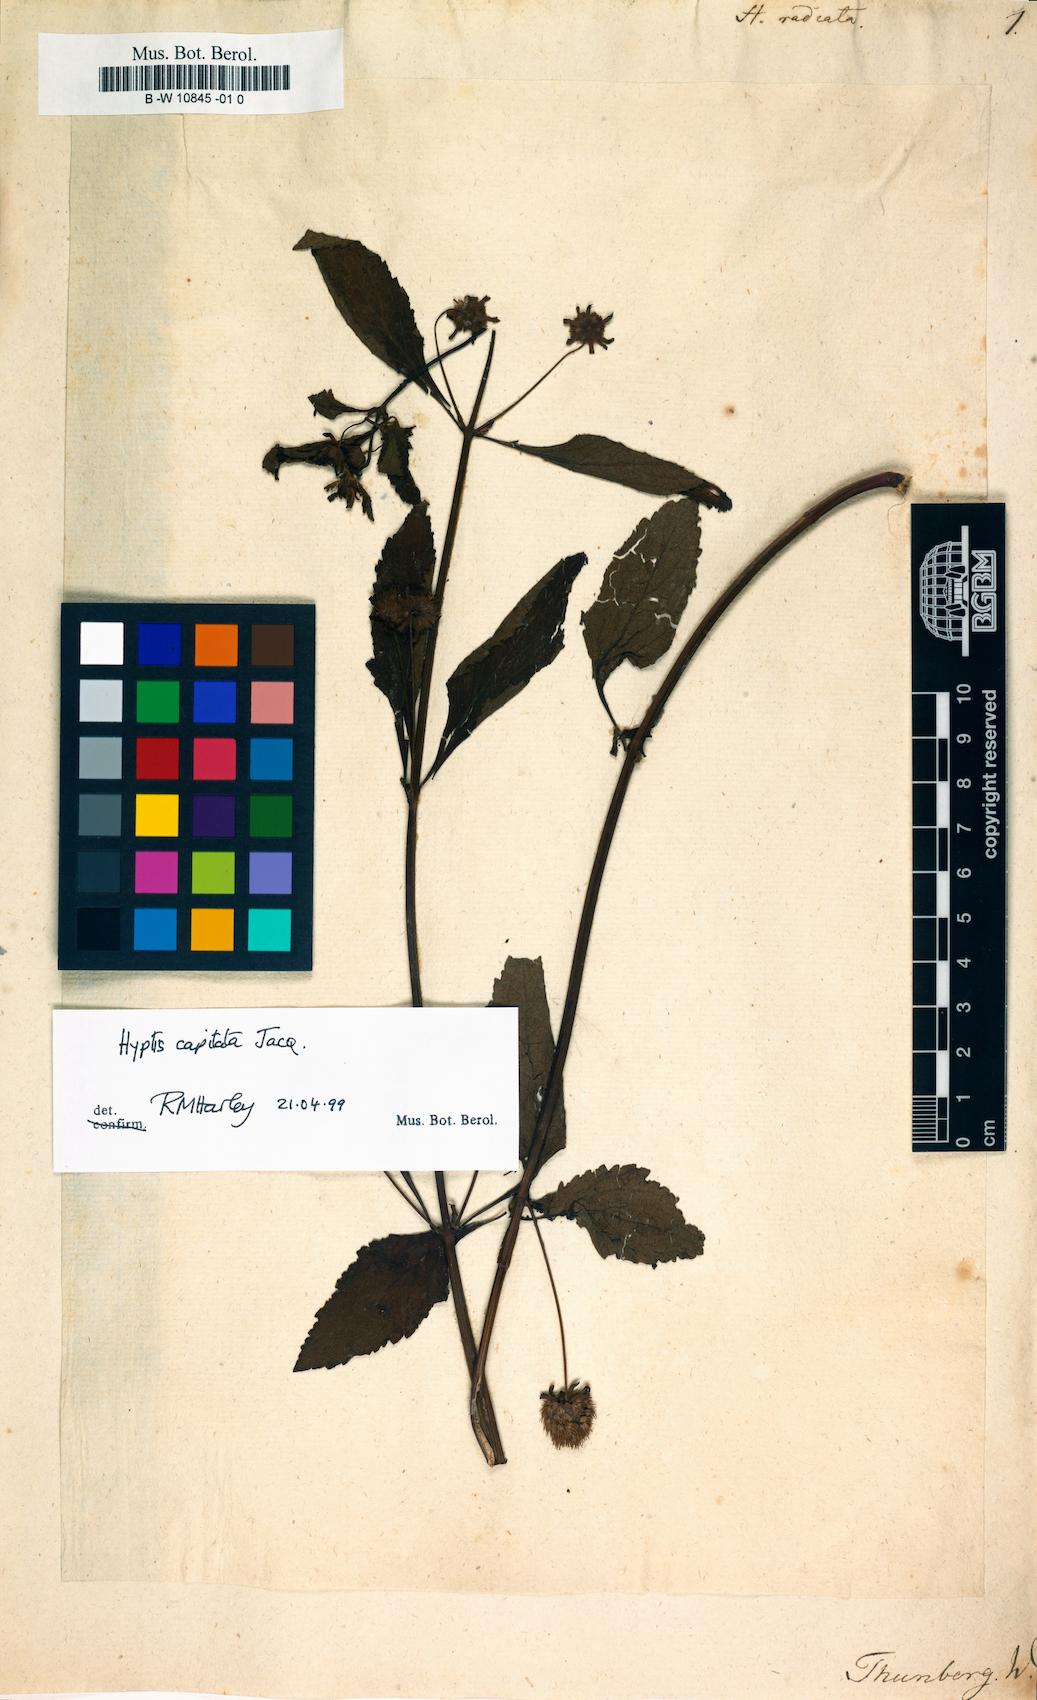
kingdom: Plantae
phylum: Tracheophyta
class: Magnoliopsida
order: Lamiales
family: Lamiaceae
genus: Hyptis
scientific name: Hyptis
